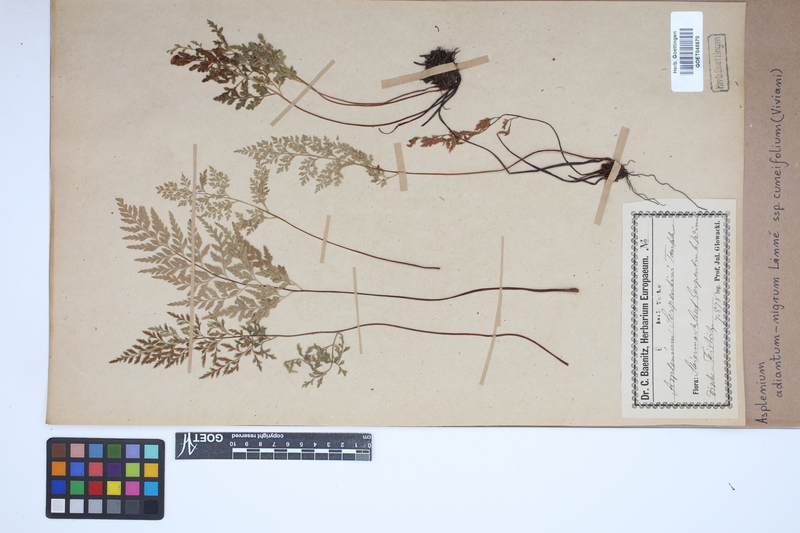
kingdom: Plantae
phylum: Tracheophyta
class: Polypodiopsida
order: Polypodiales
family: Aspleniaceae
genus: Asplenium
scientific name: Asplenium cuneifolium
